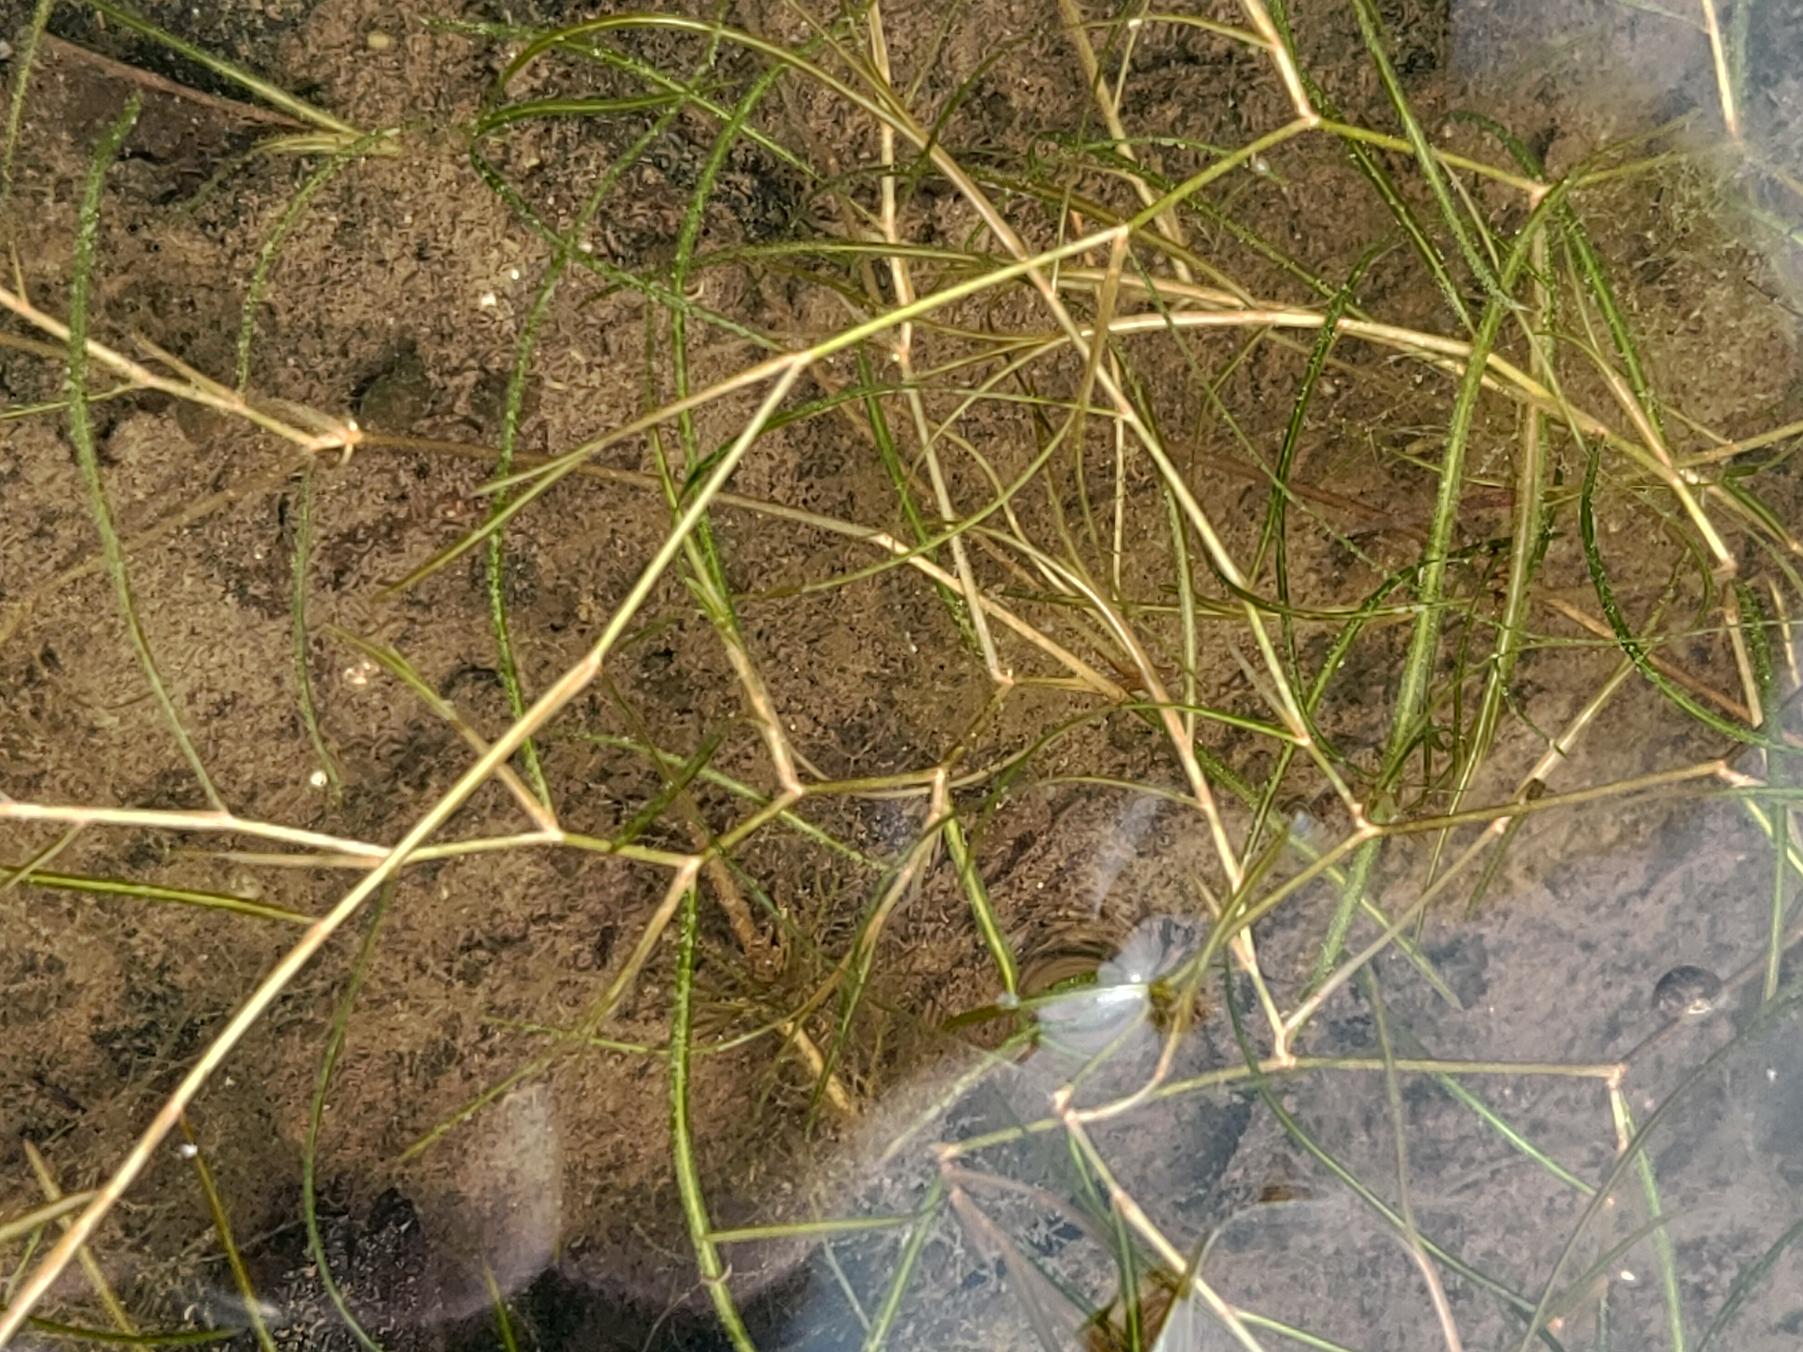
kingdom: Plantae
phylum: Tracheophyta
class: Liliopsida
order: Alismatales
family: Potamogetonaceae
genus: Potamogeton
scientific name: Potamogeton berchtoldii
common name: Liden vandaks
